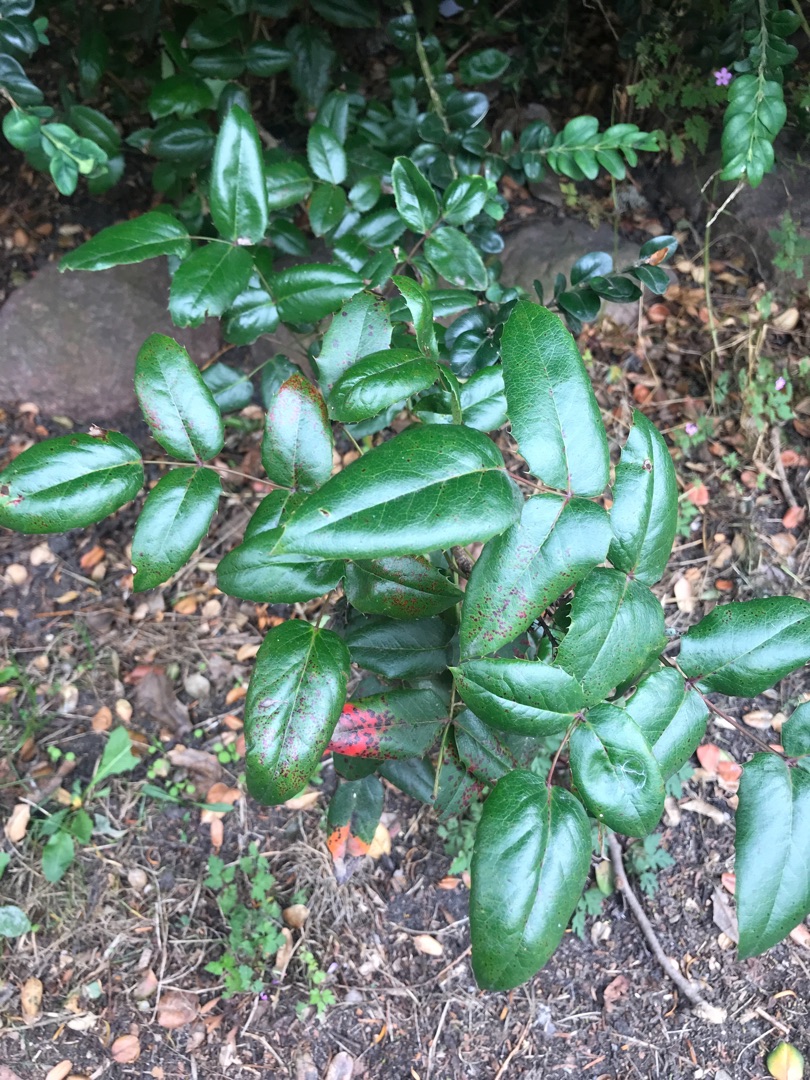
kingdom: Plantae
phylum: Tracheophyta
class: Magnoliopsida
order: Ranunculales
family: Berberidaceae
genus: Mahonia
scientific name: Mahonia aquifolium
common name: Almindelig mahonie
